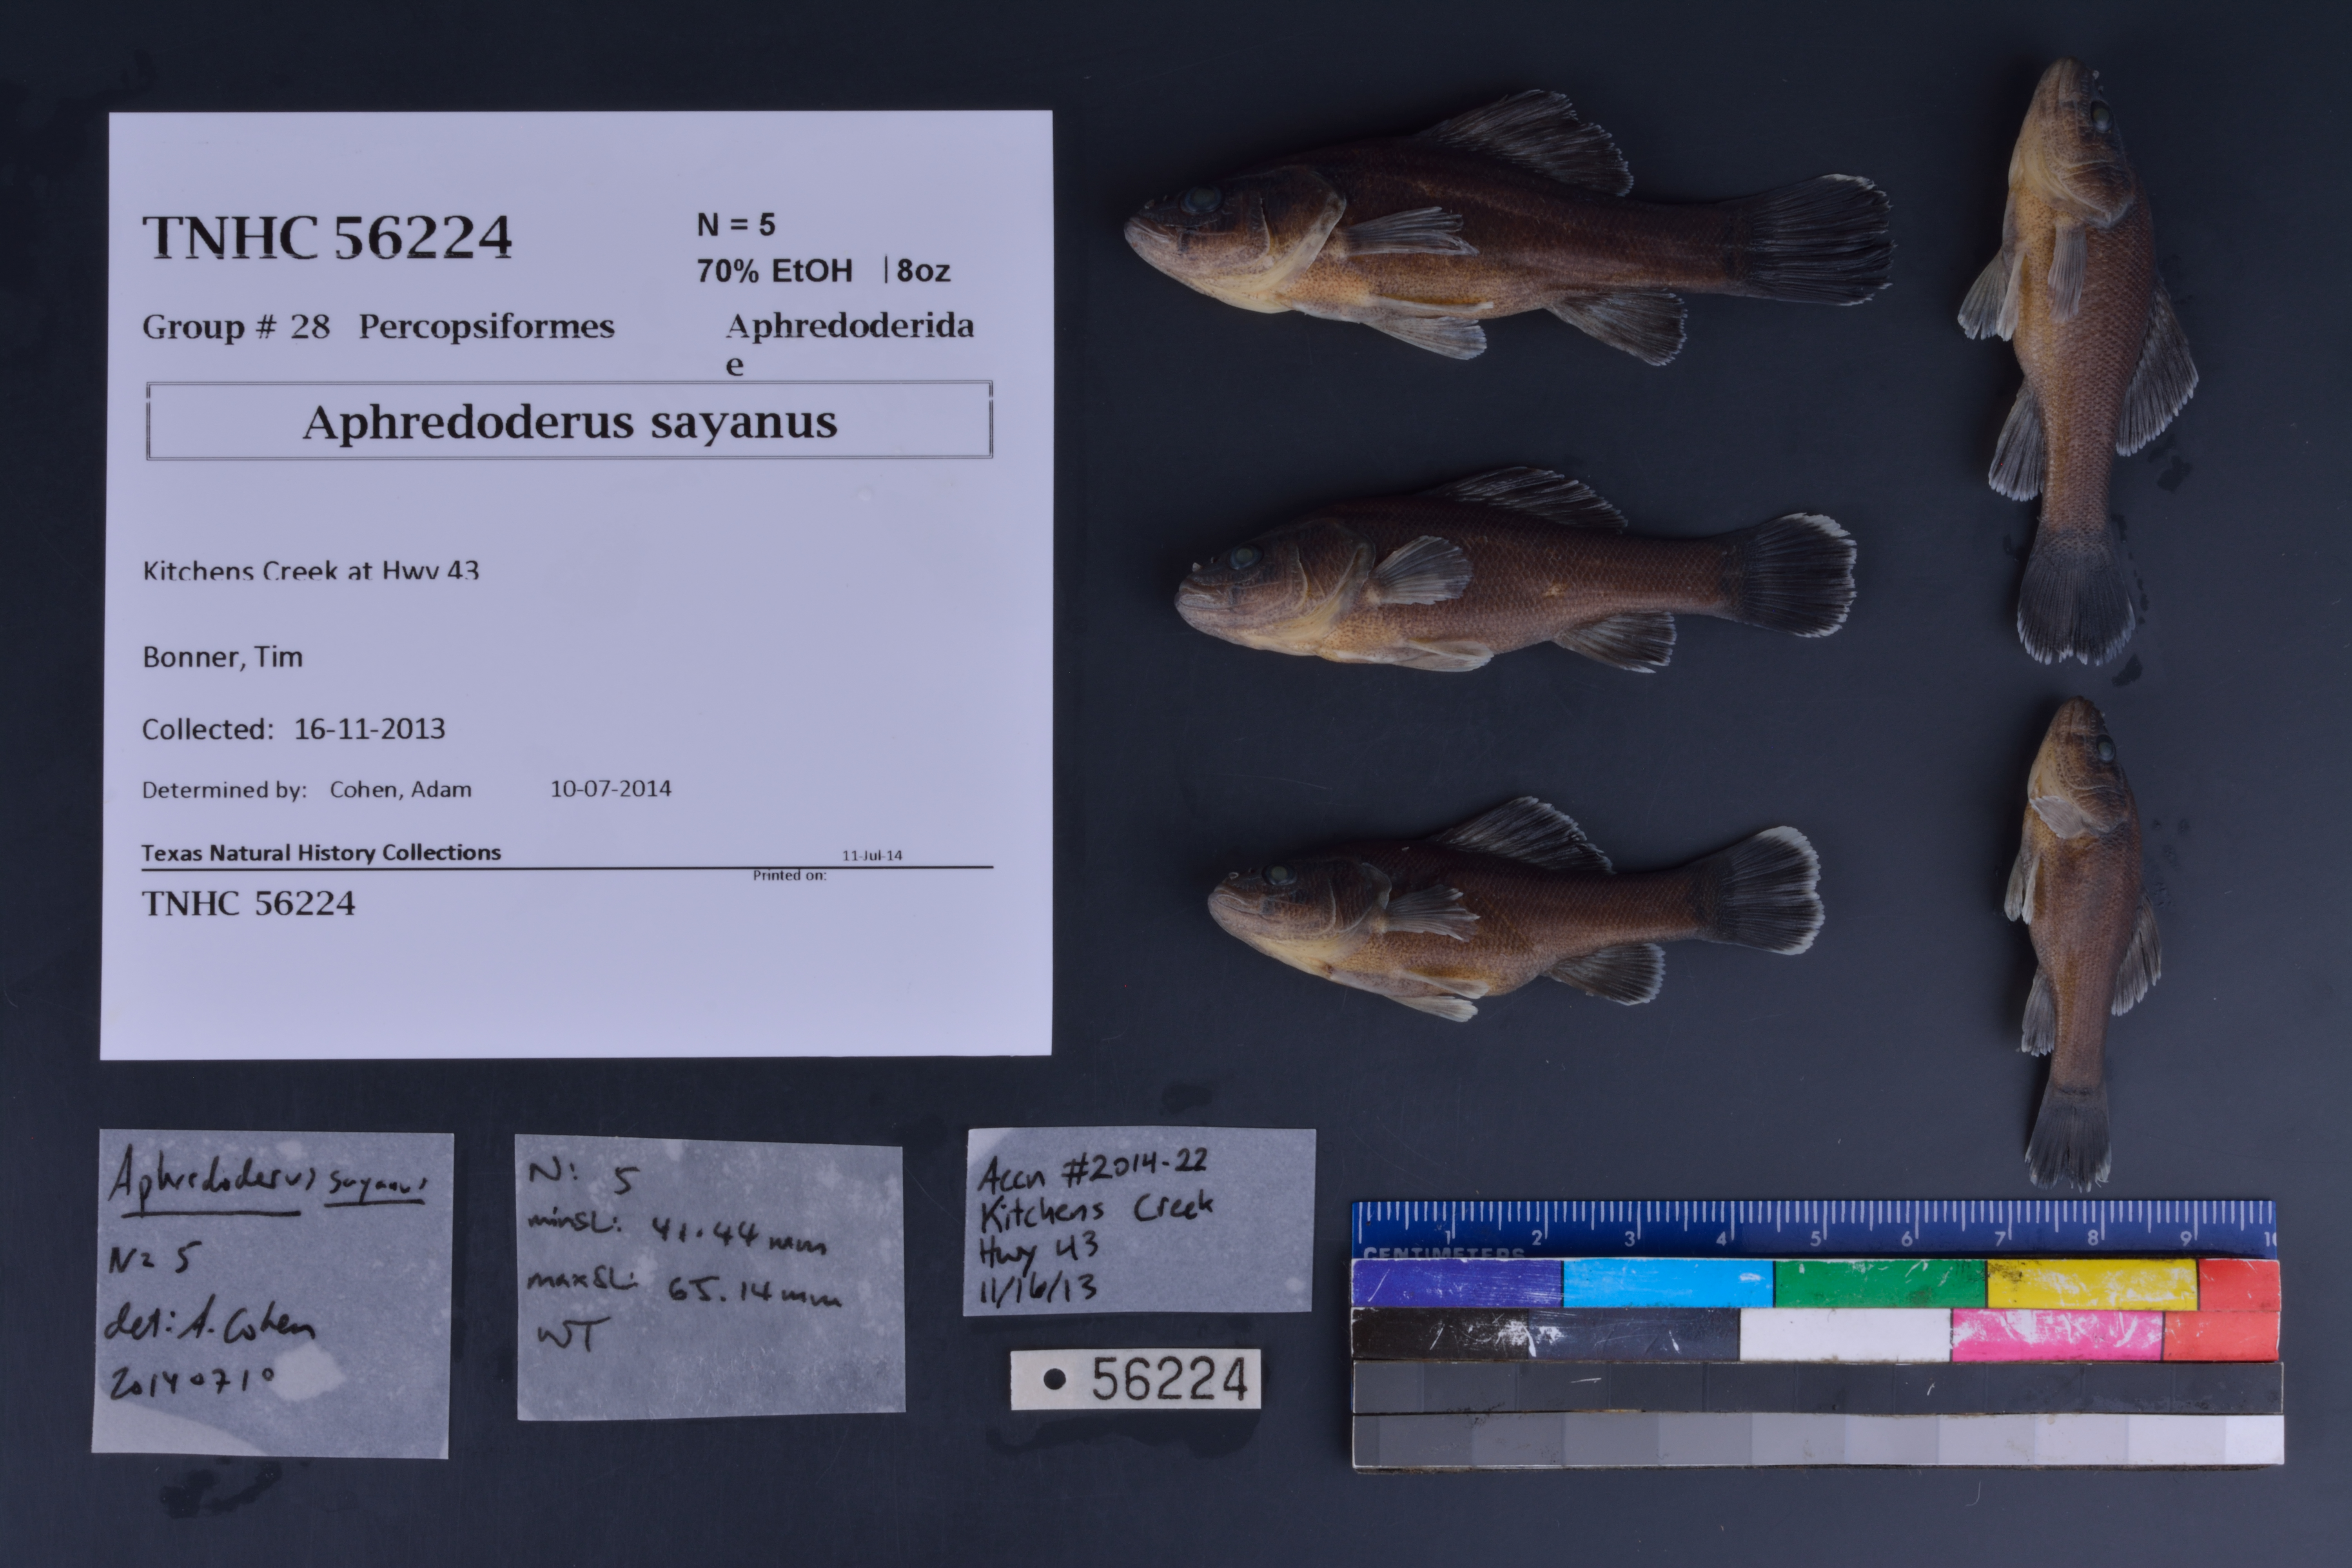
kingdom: Animalia
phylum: Chordata
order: Percopsiformes
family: Aphredoderidae
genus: Aphredoderus
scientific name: Aphredoderus sayanus
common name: Pirate perch
